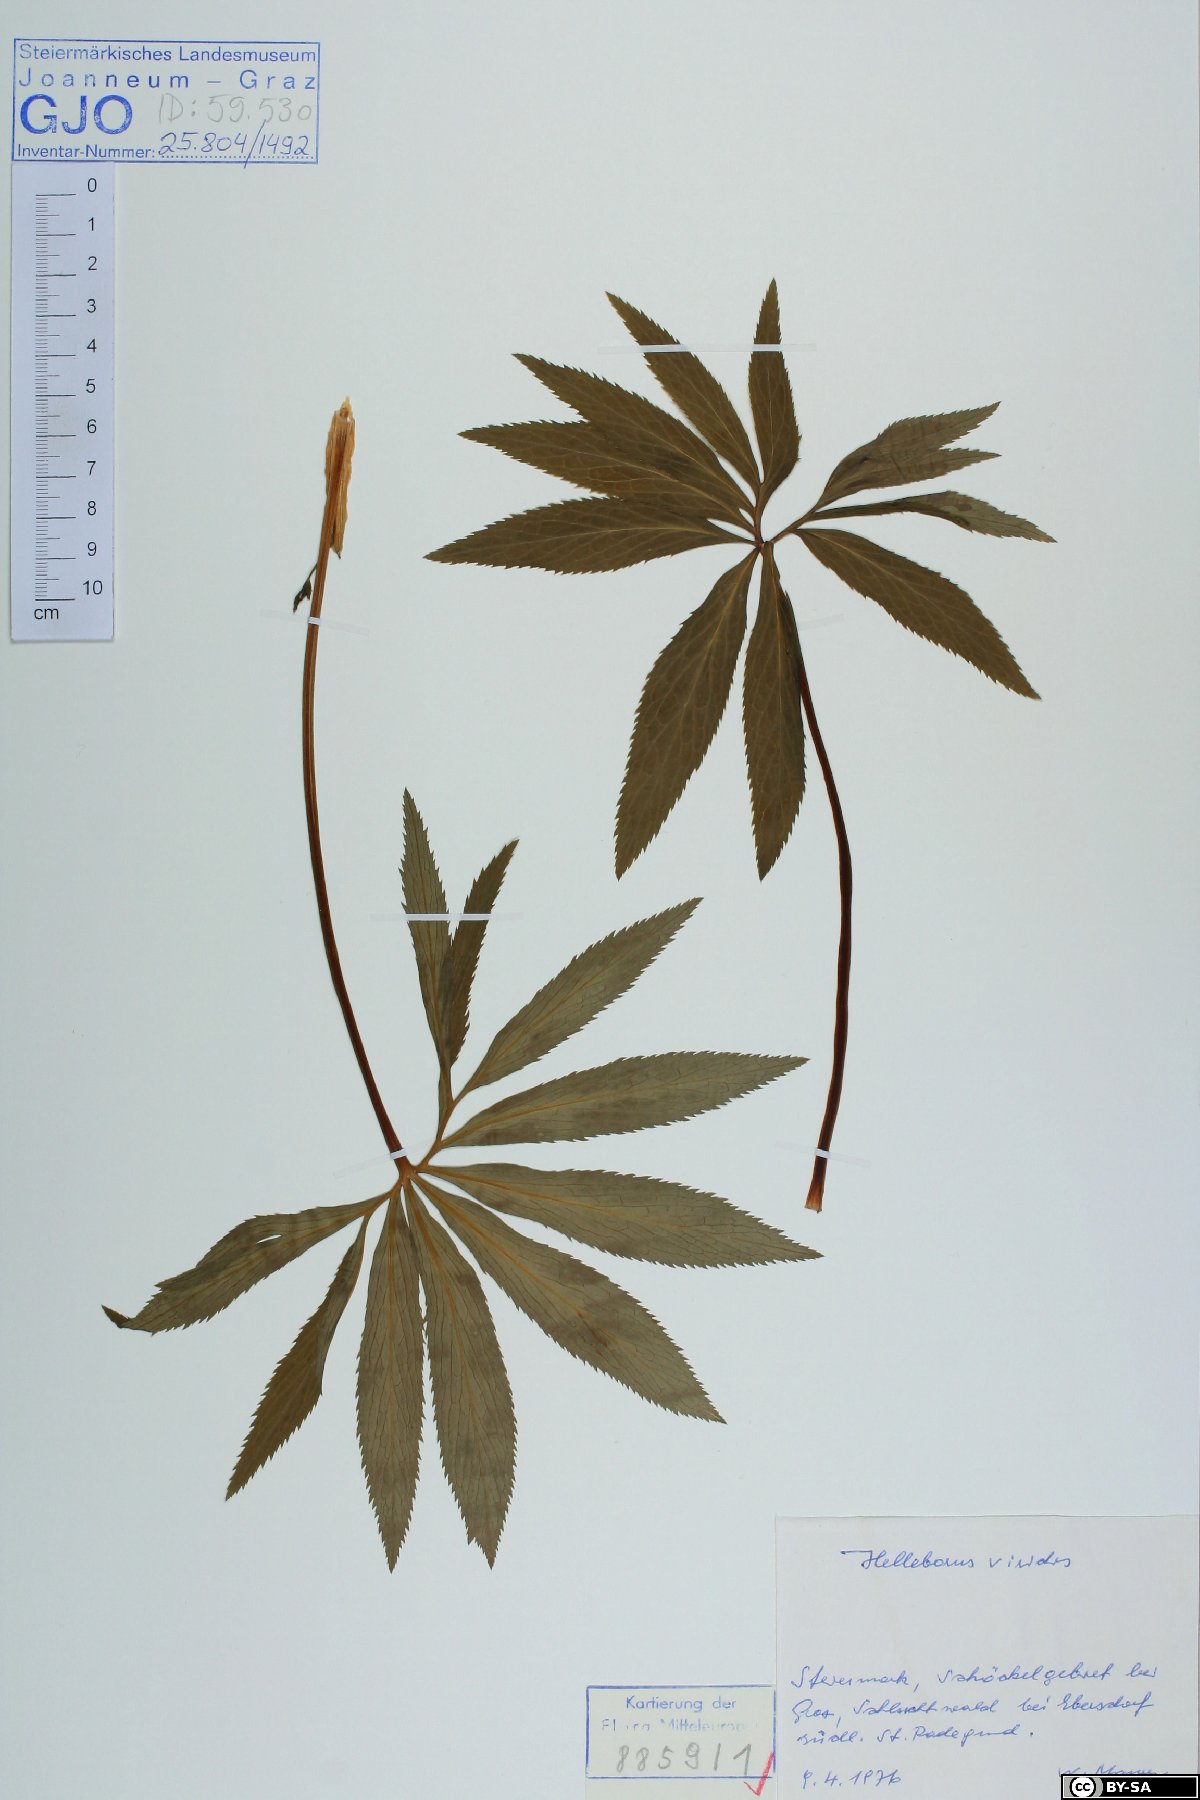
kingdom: Plantae
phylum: Tracheophyta
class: Magnoliopsida
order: Ranunculales
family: Ranunculaceae
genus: Helleborus
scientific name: Helleborus viridis
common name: Green hellebore
